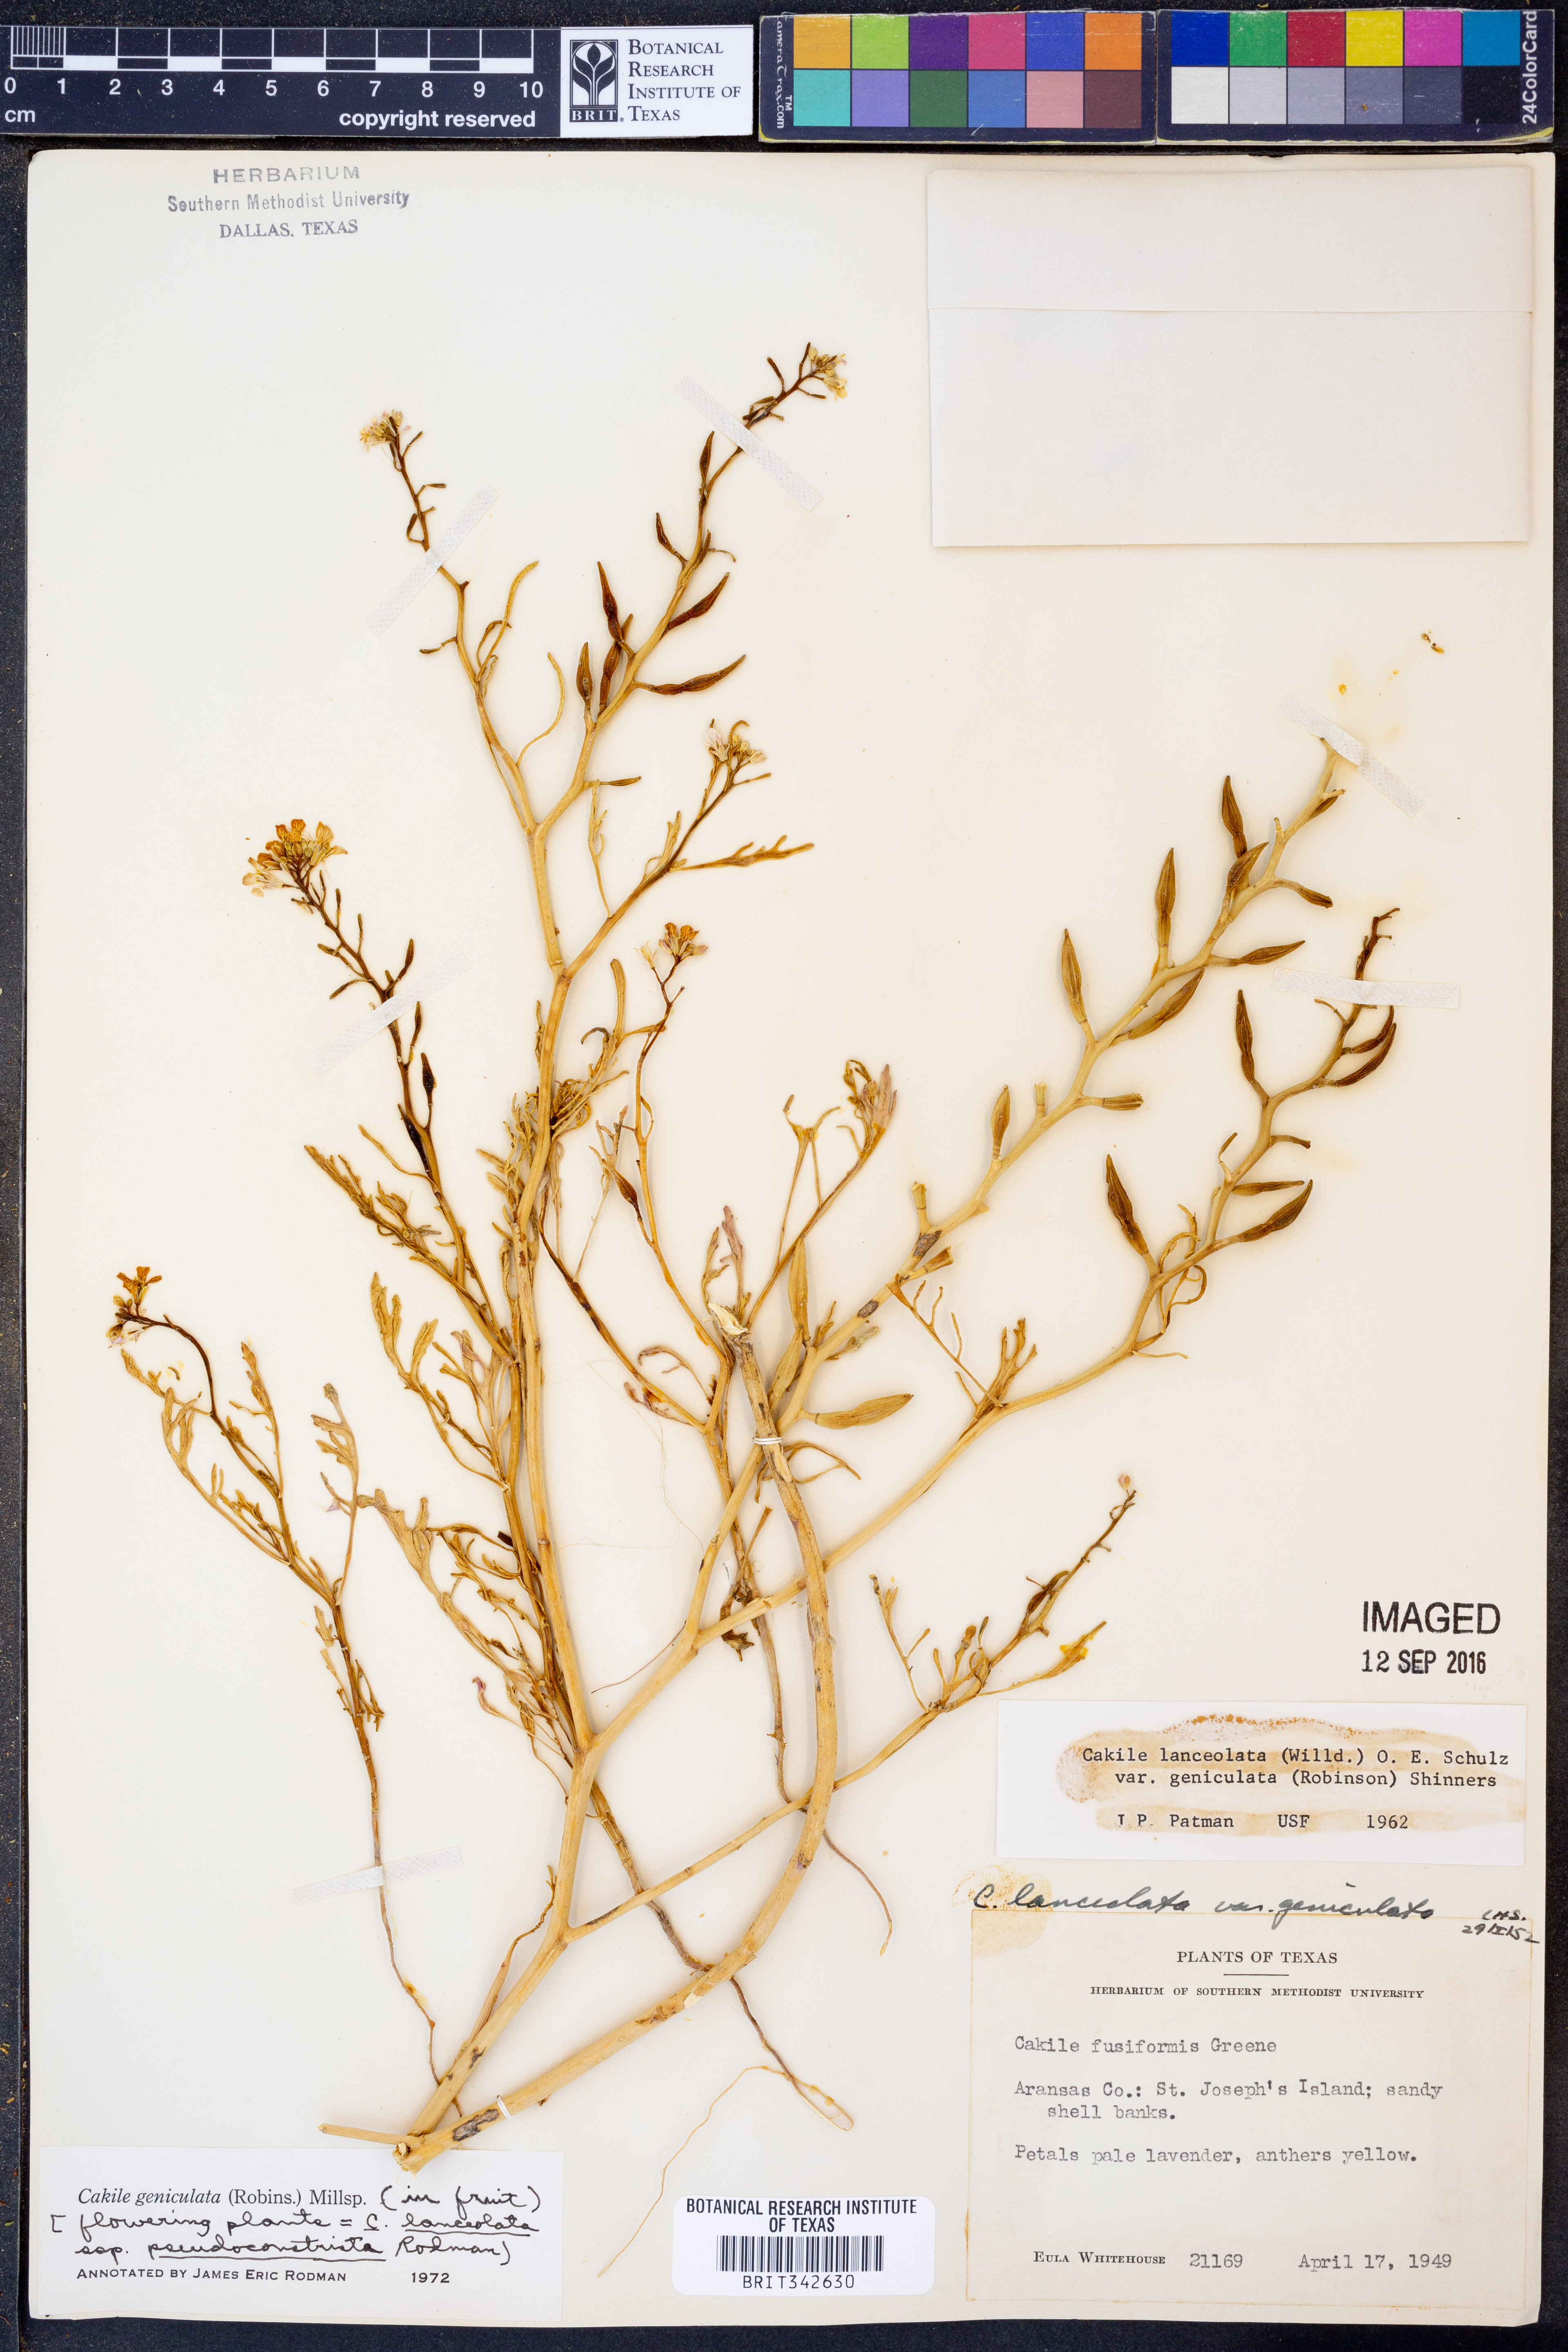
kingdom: Plantae
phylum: Tracheophyta
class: Magnoliopsida
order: Brassicales
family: Brassicaceae
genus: Cakile
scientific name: Cakile lanceolata
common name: Sea rocket
